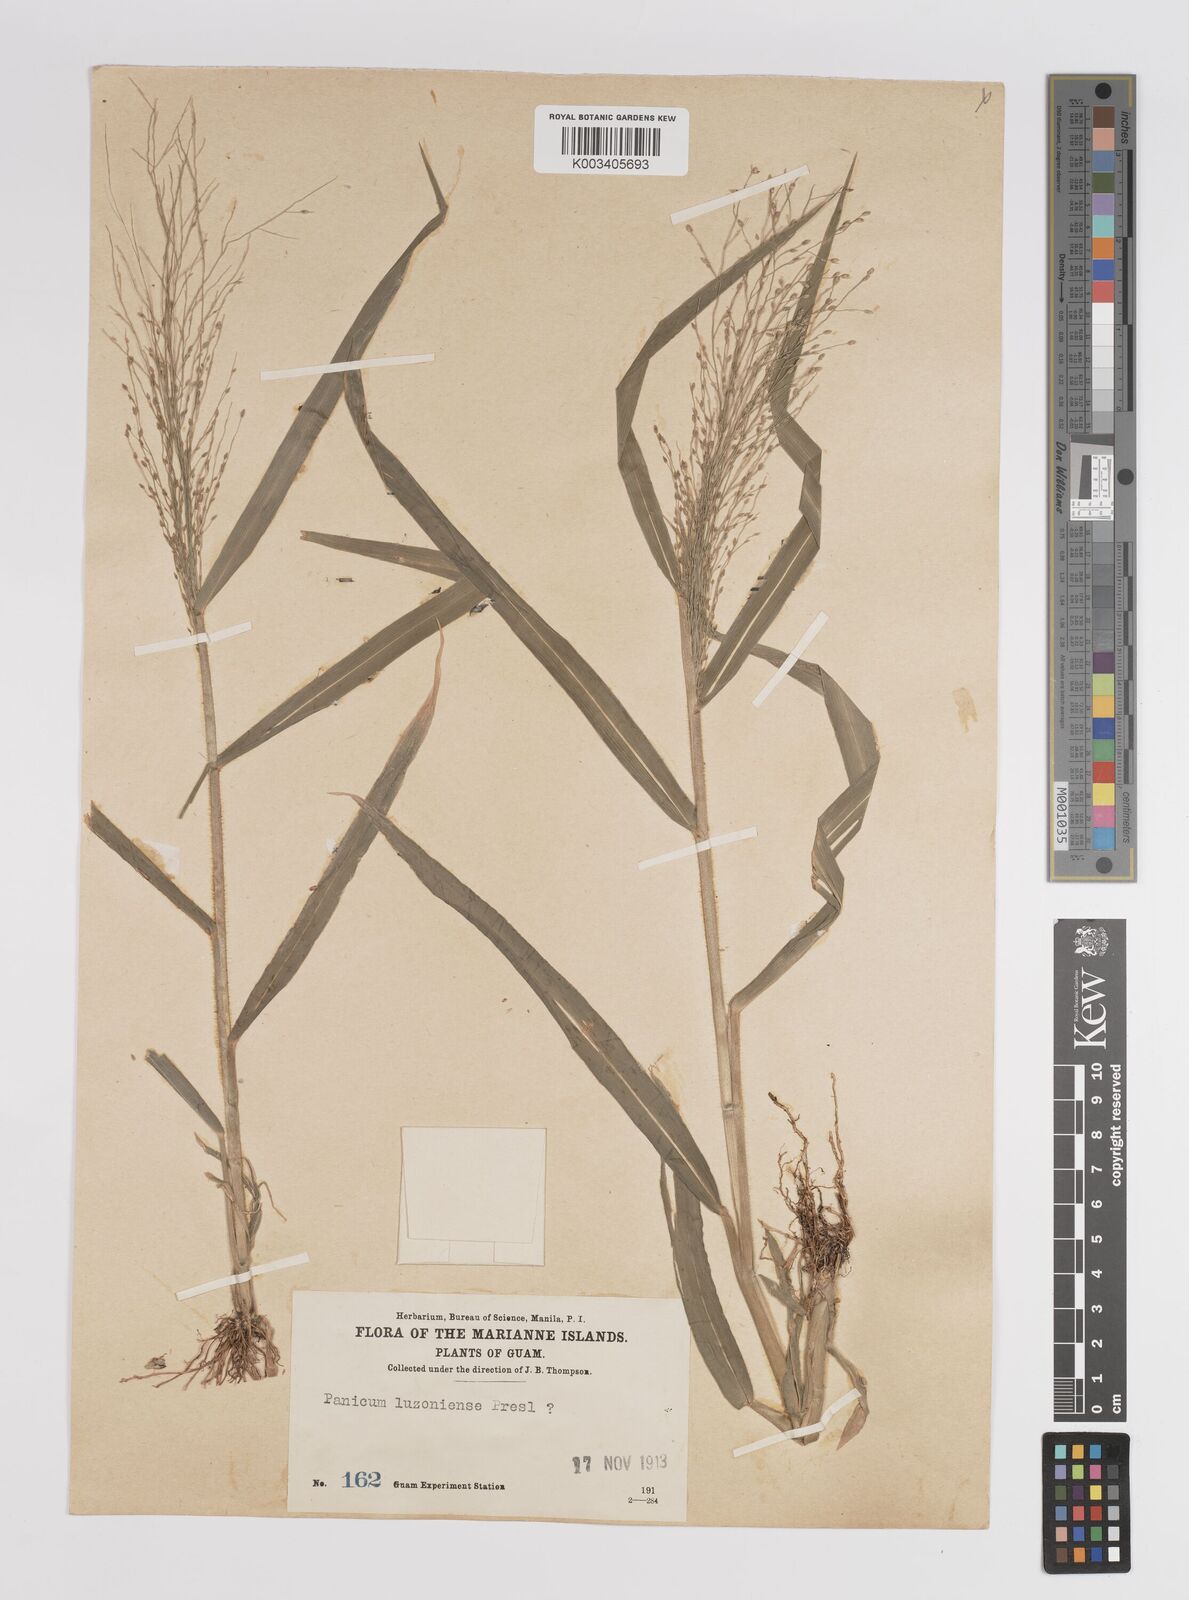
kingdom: Plantae
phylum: Tracheophyta
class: Liliopsida
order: Poales
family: Poaceae
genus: Panicum
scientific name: Panicum luzonense
